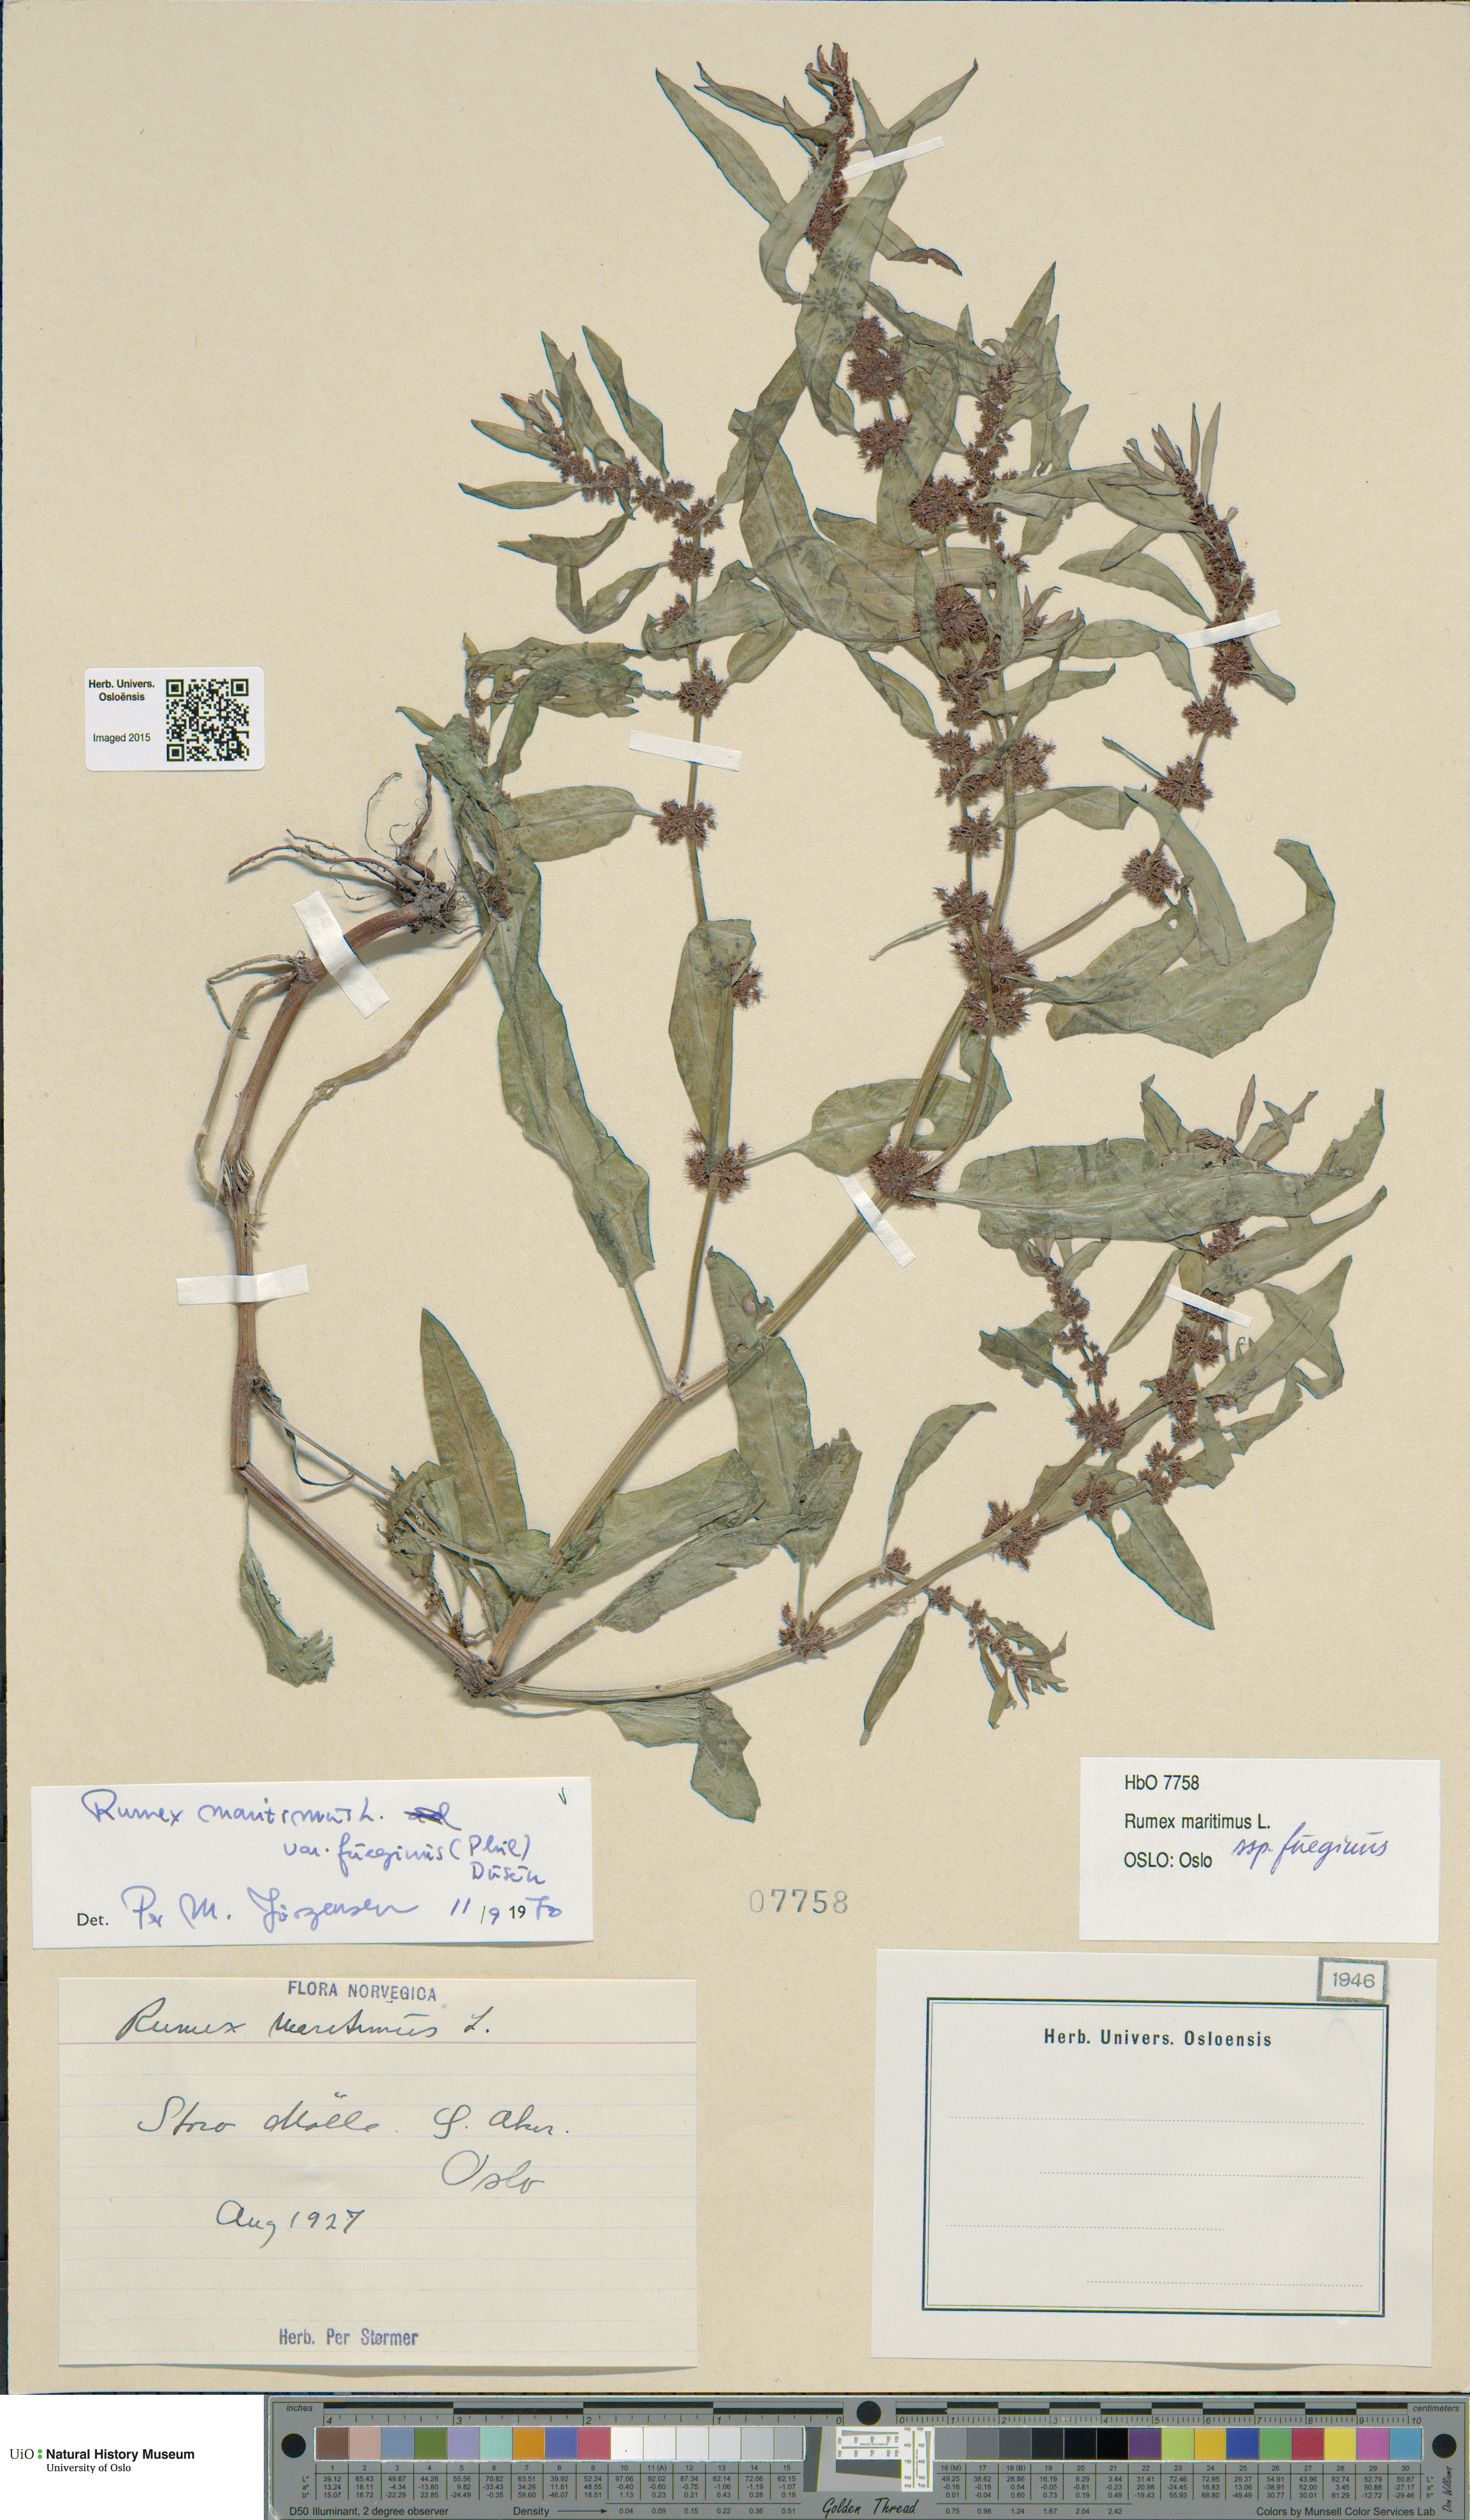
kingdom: Plantae
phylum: Tracheophyta
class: Magnoliopsida
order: Caryophyllales
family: Polygonaceae
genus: Rumex
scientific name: Rumex fueginus
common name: American golden dock
